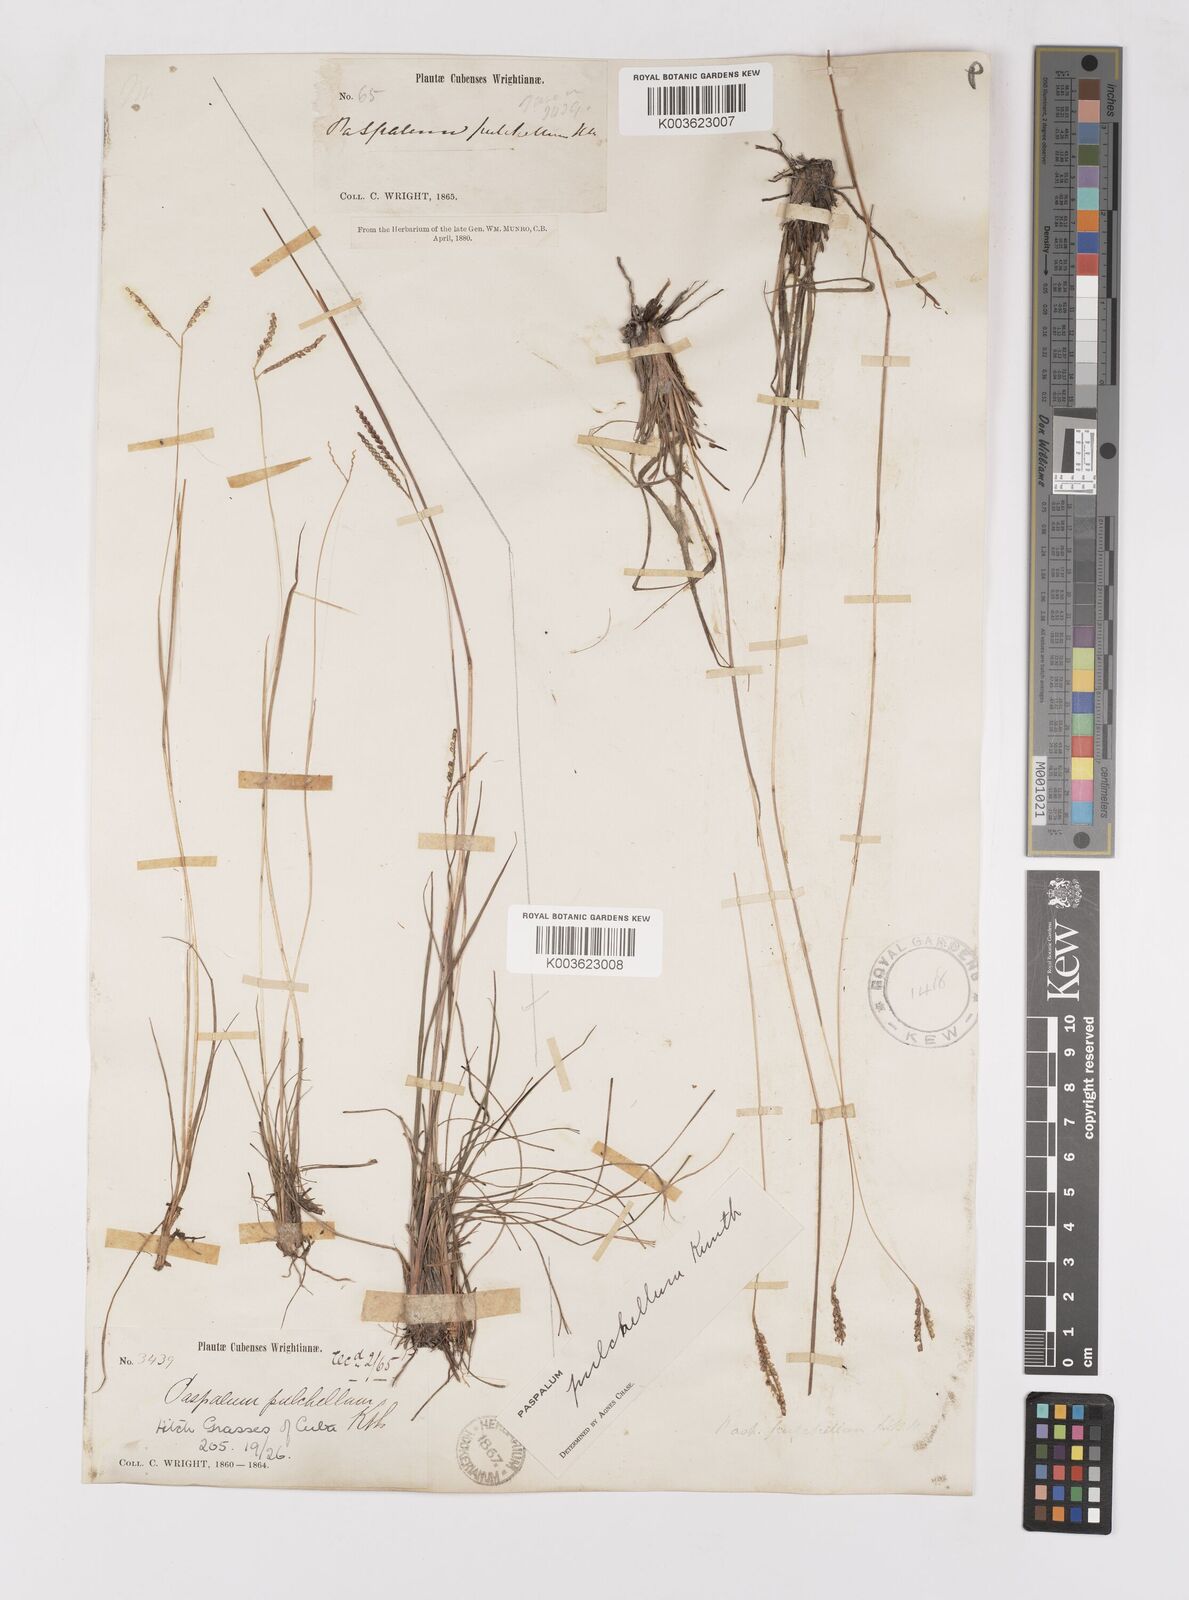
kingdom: Plantae
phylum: Tracheophyta
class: Liliopsida
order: Poales
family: Poaceae
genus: Paspalum
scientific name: Paspalum pulchellum
